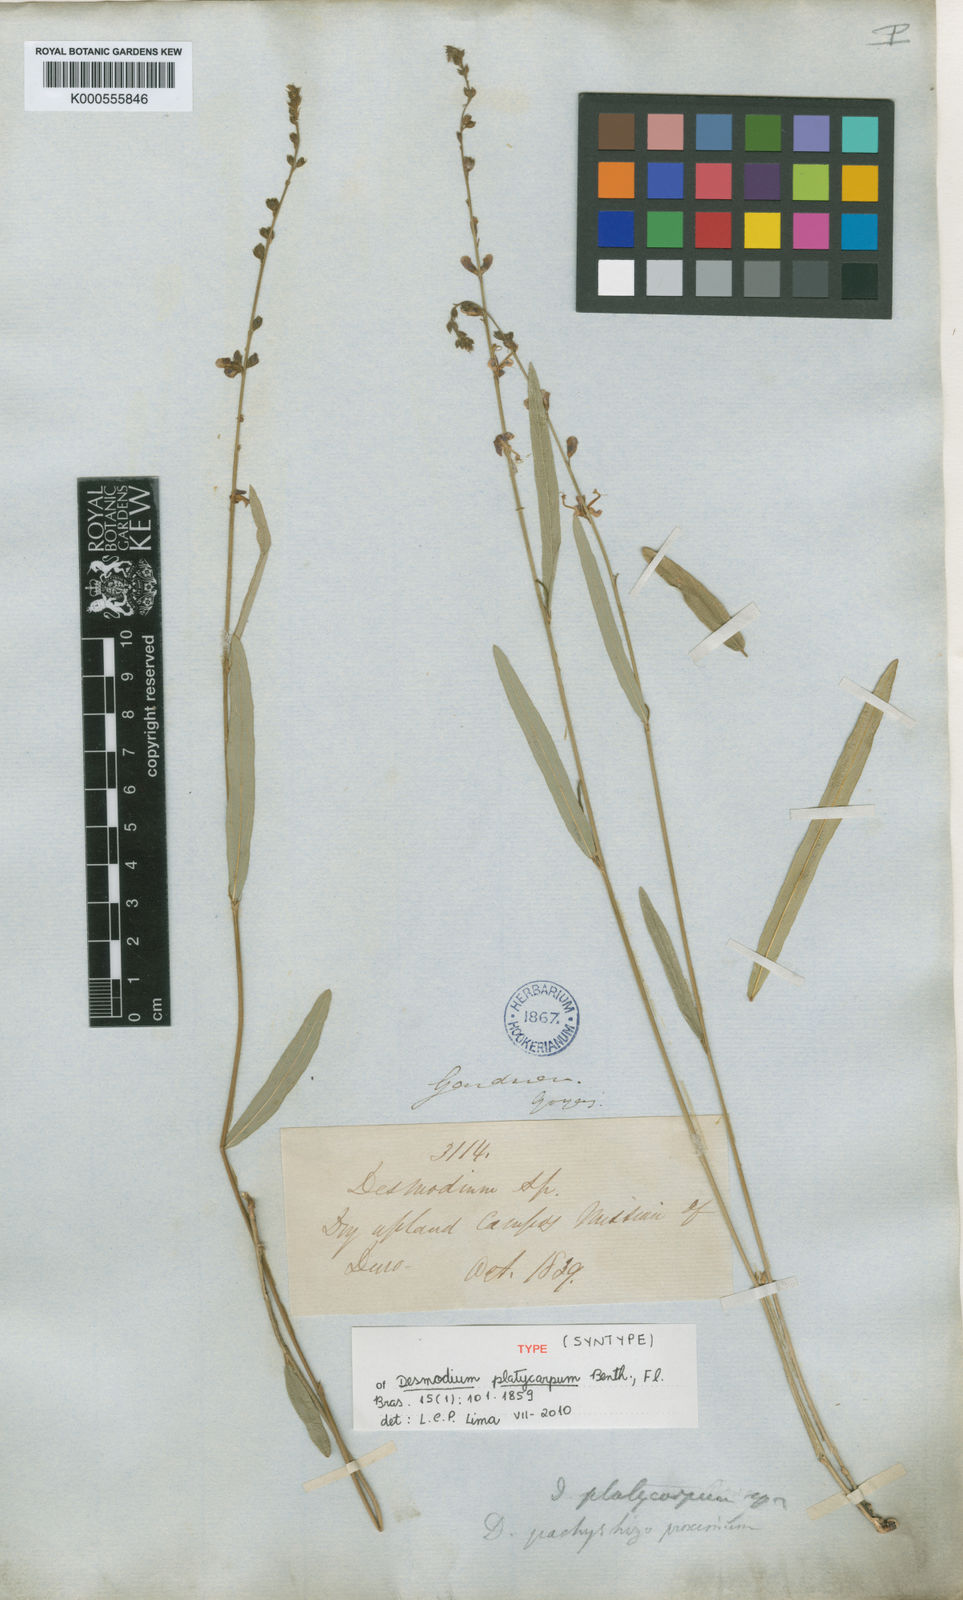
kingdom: Plantae
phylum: Tracheophyta
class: Magnoliopsida
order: Fabales
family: Fabaceae
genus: Desmodium
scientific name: Desmodium platycarpum
